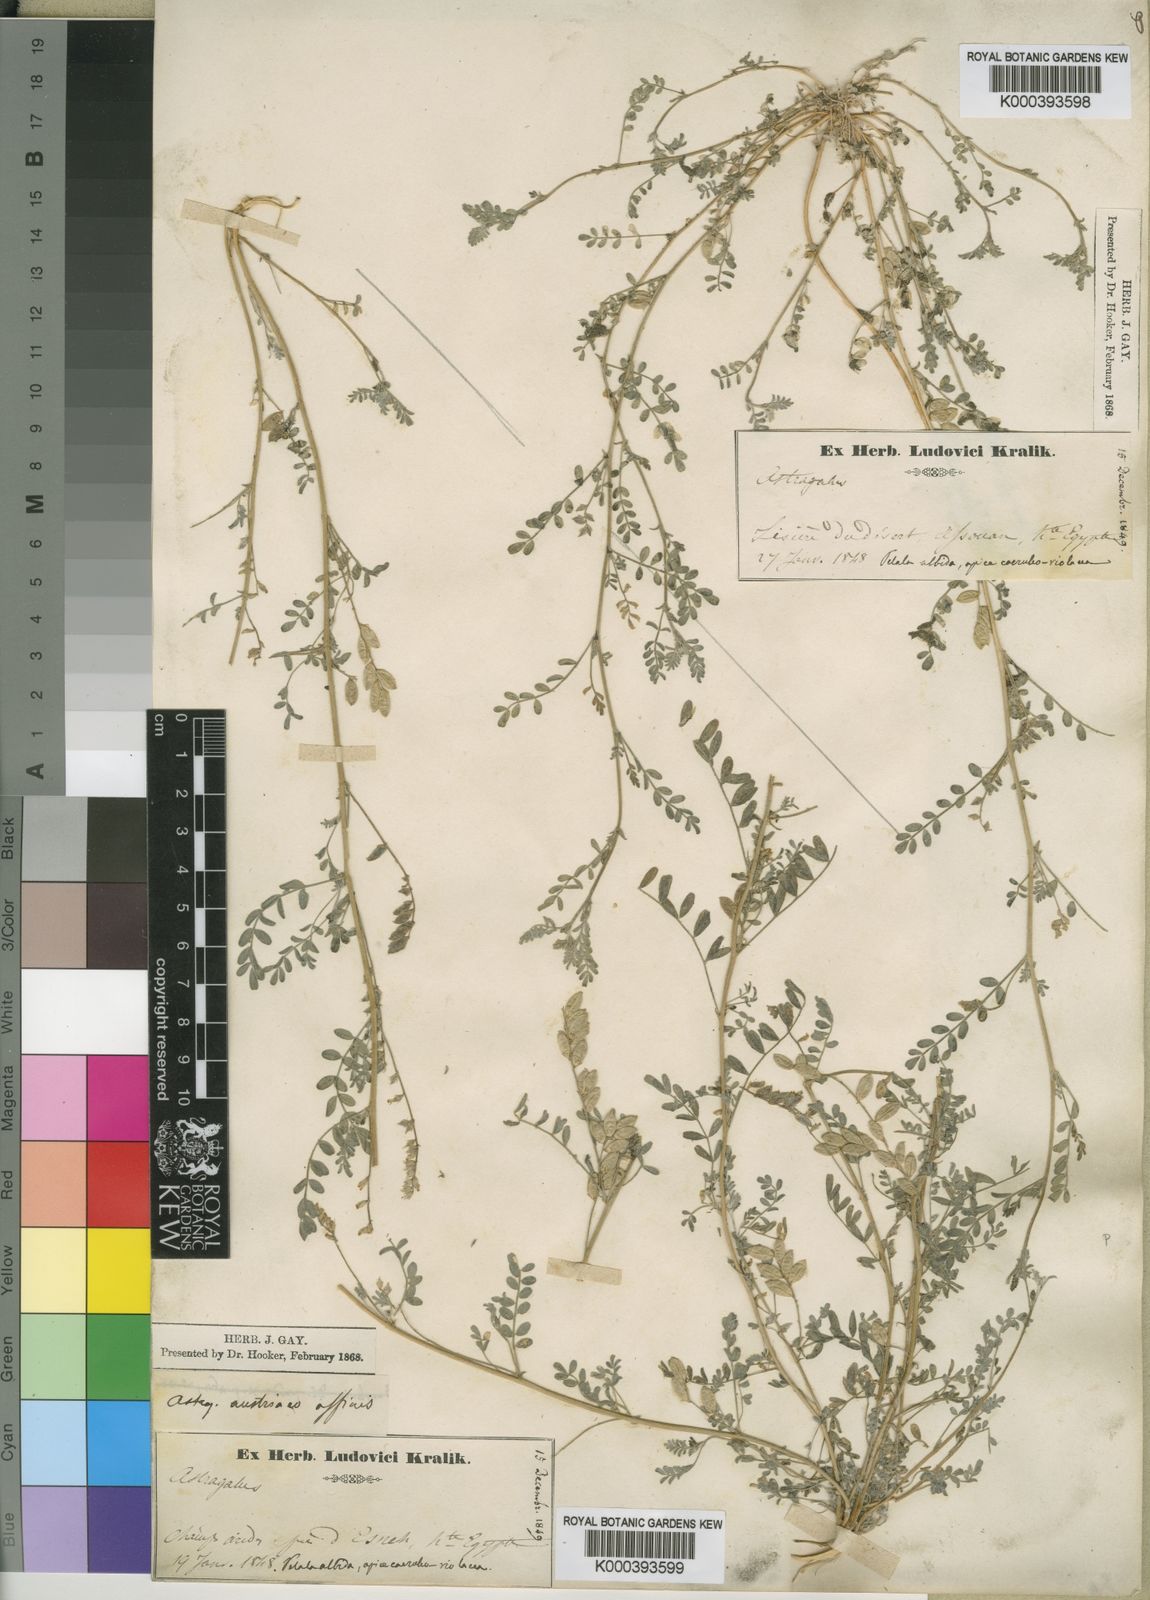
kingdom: Plantae
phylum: Tracheophyta
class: Magnoliopsida
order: Fabales
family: Fabaceae
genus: Astragalus
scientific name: Astragalus
